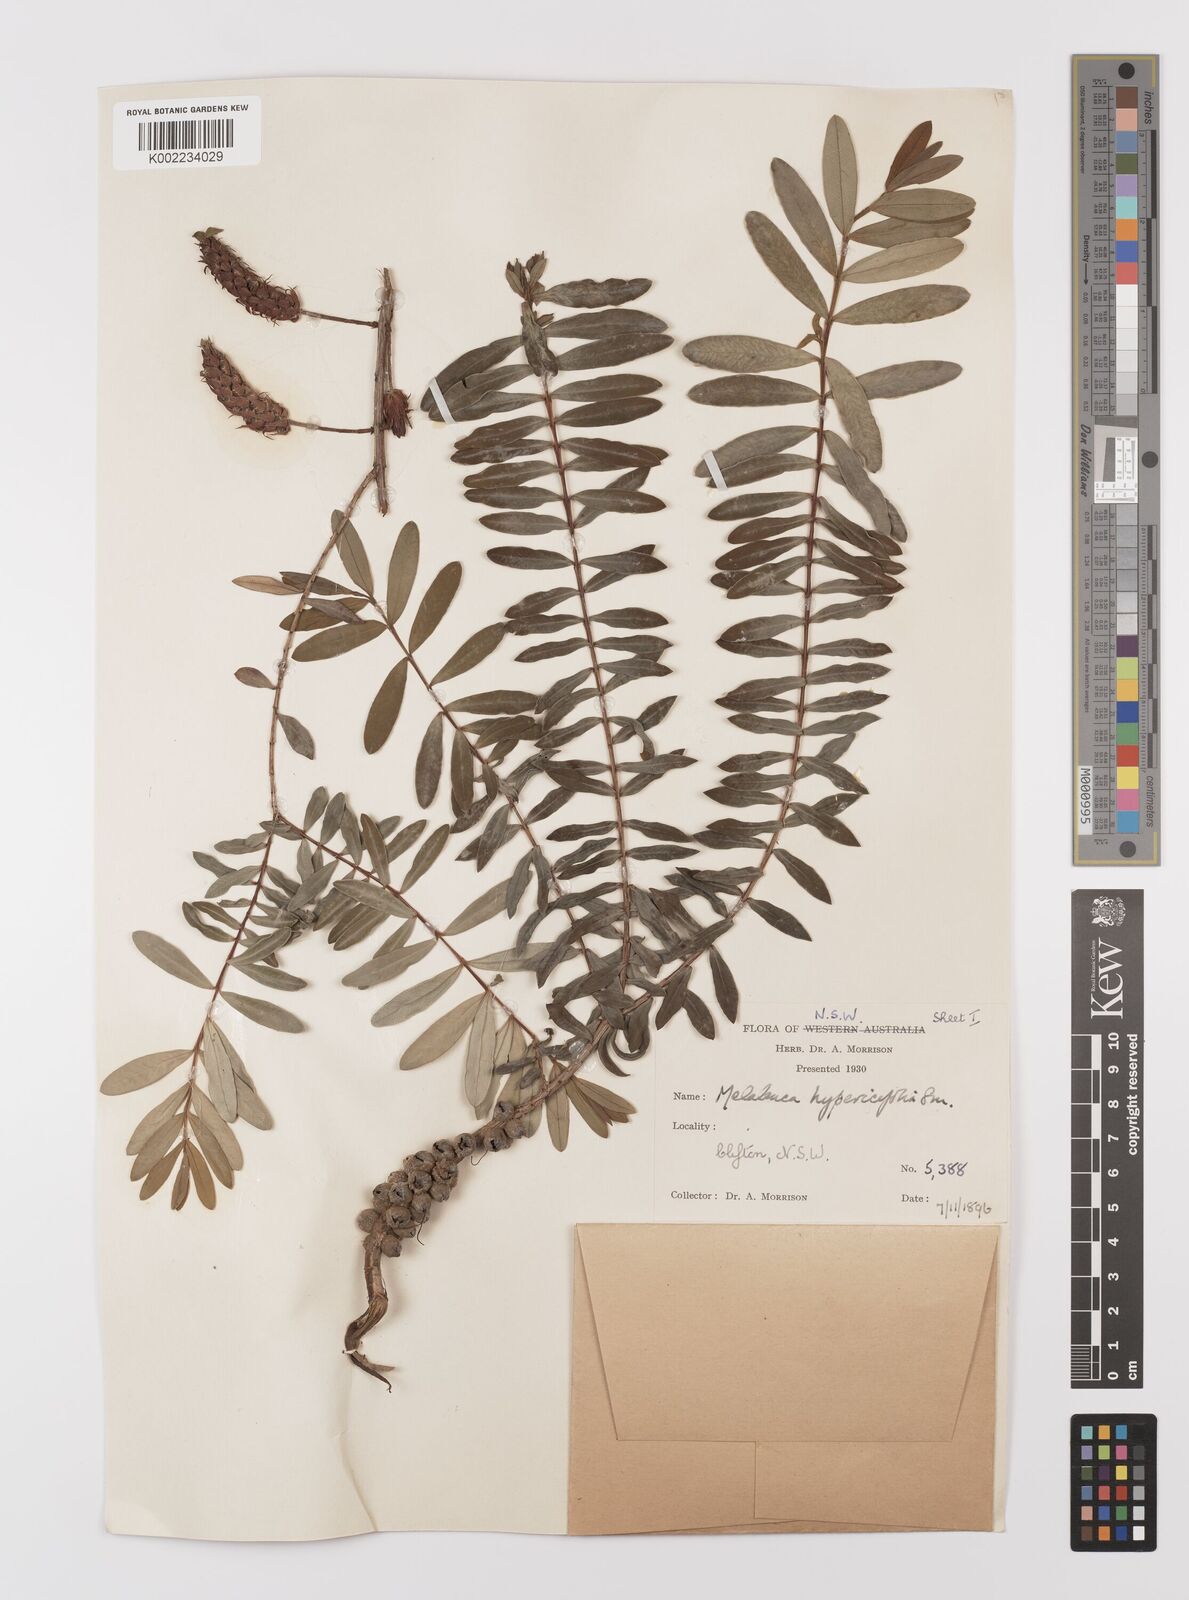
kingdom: Plantae
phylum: Tracheophyta
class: Magnoliopsida
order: Myrtales
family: Myrtaceae
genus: Melaleuca
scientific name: Melaleuca hypericifolia
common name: Red honey myrtle
